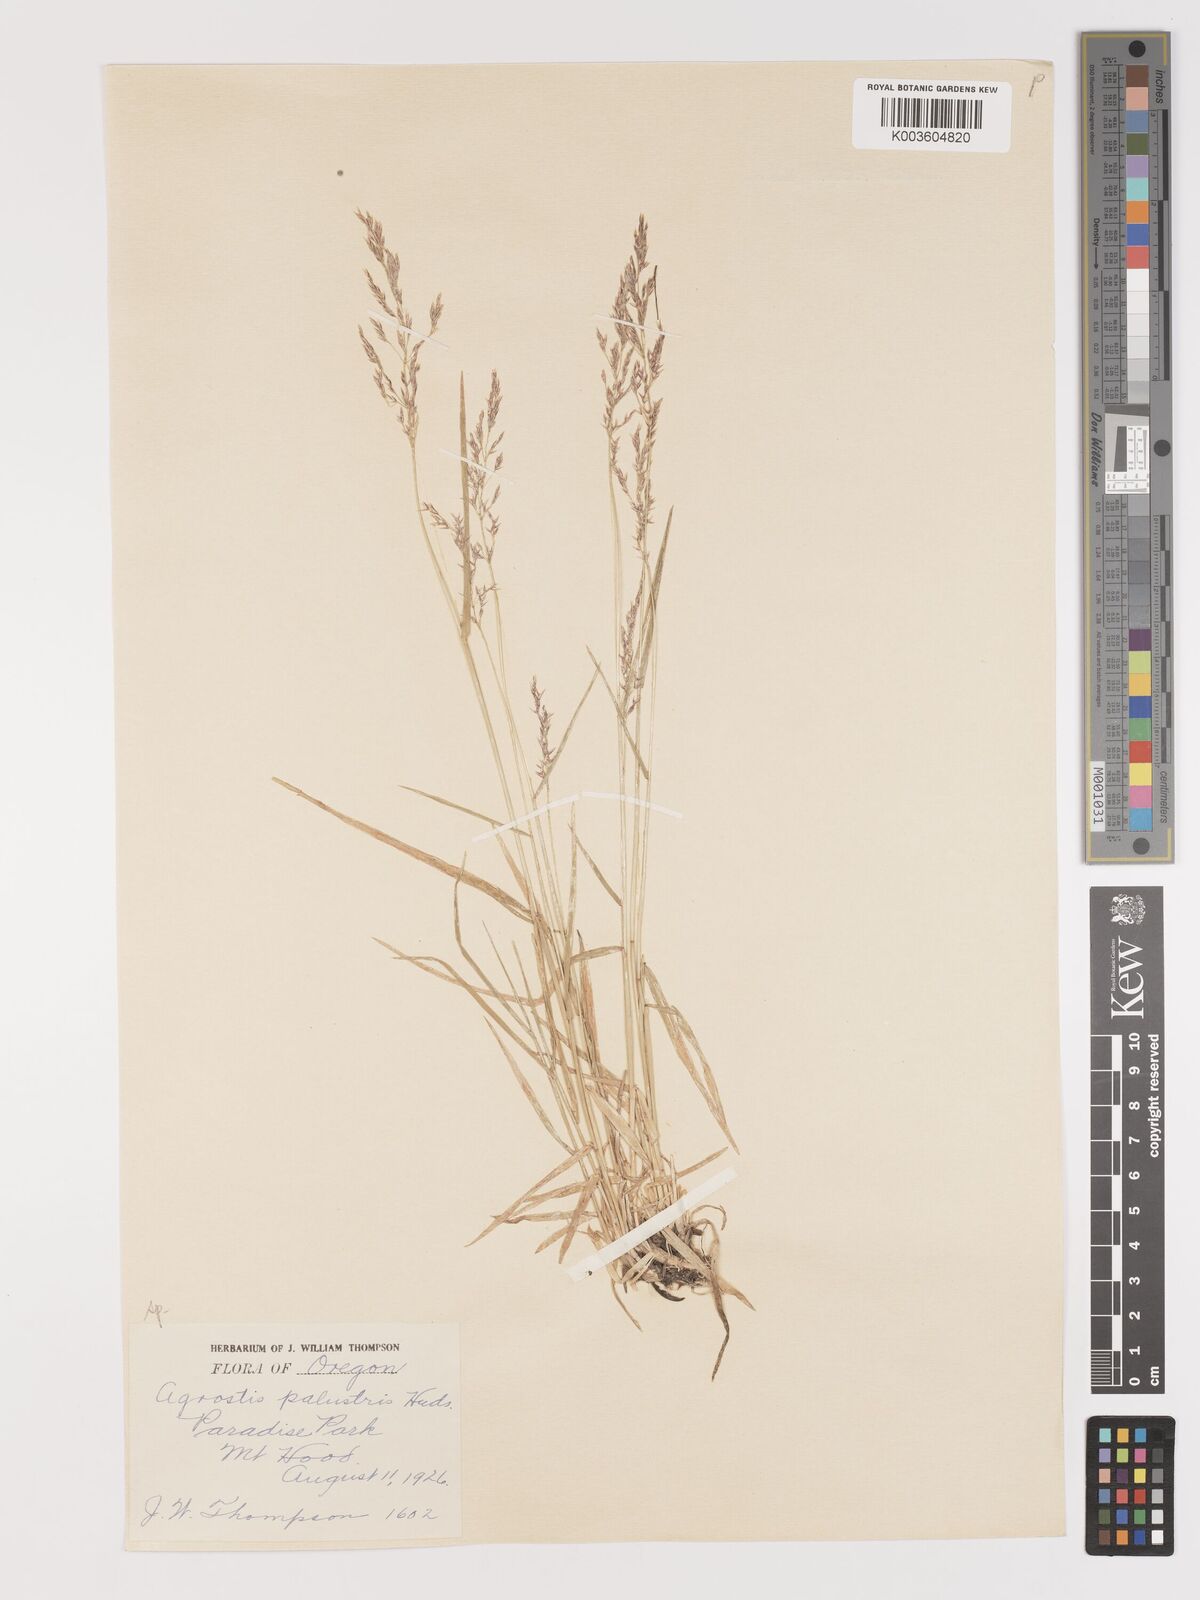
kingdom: Plantae
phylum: Tracheophyta
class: Liliopsida
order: Poales
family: Poaceae
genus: Agrostis
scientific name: Agrostis
